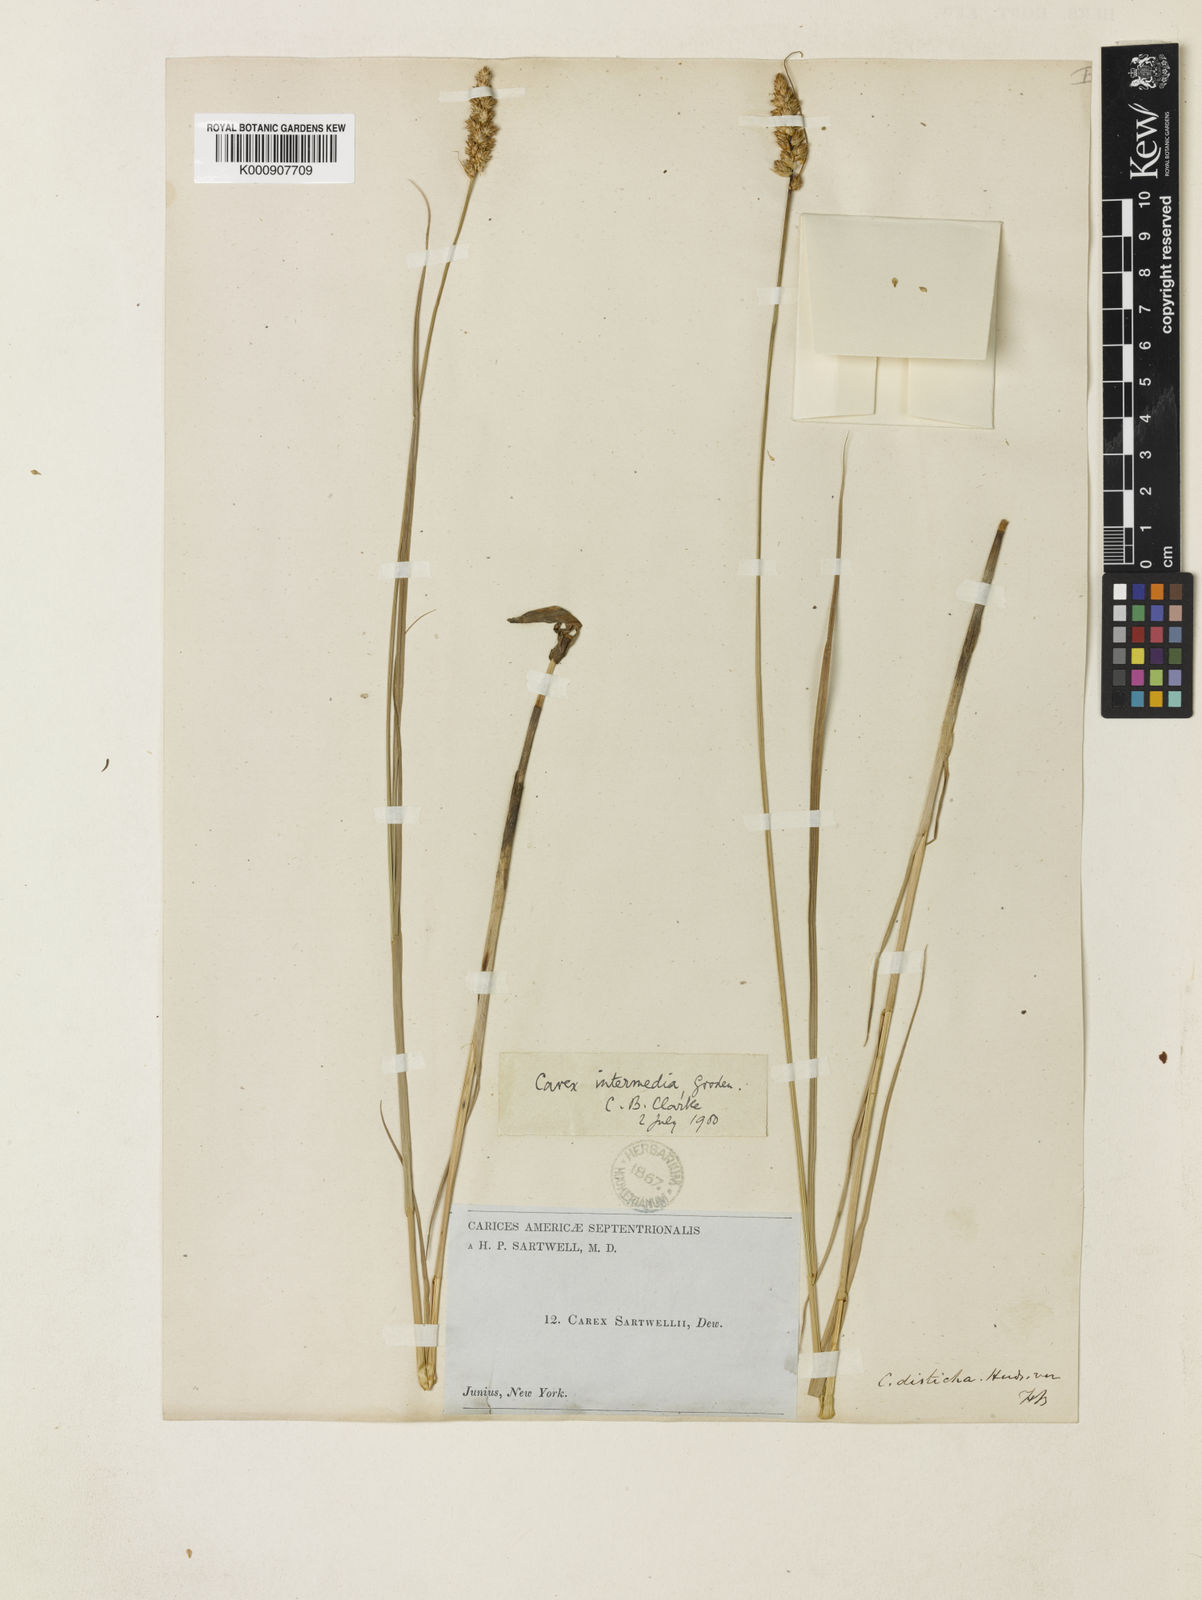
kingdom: Plantae
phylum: Tracheophyta
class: Liliopsida
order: Poales
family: Cyperaceae
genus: Carex
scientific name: Carex sartwellii
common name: Sartwell's sedge
